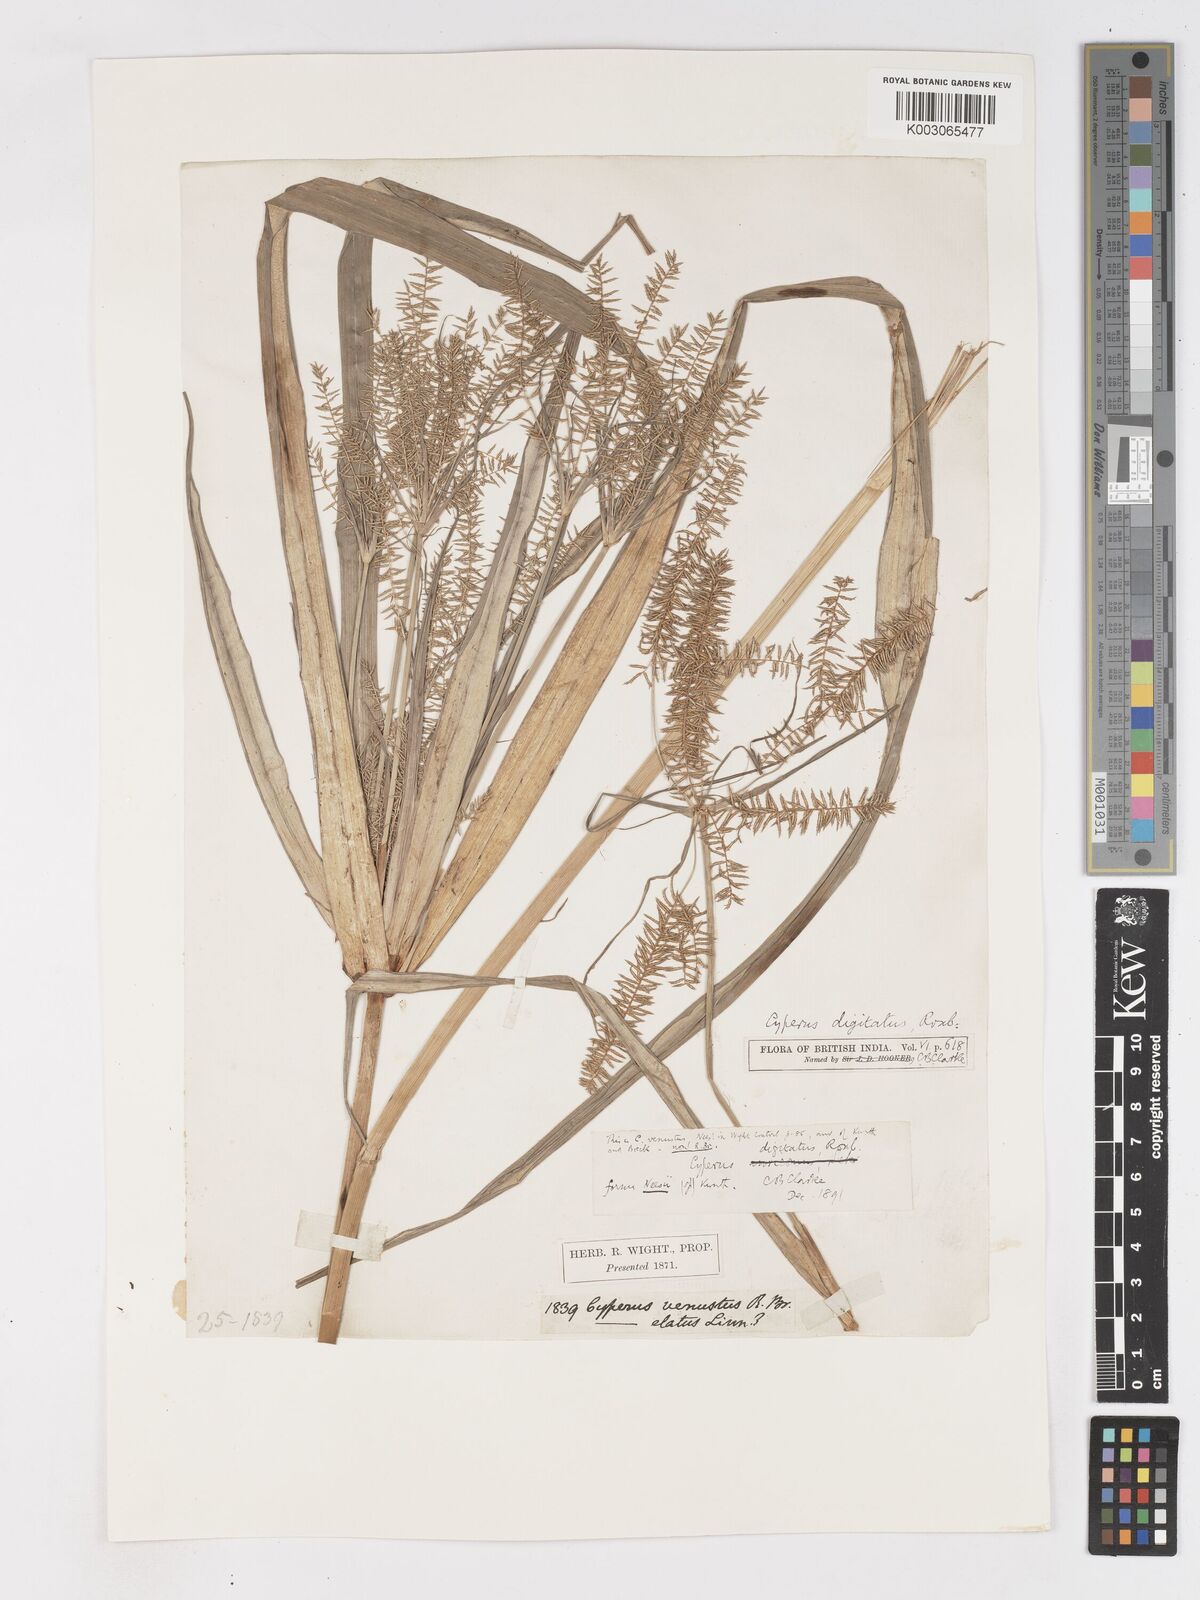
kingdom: Plantae
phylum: Tracheophyta
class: Liliopsida
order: Poales
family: Cyperaceae
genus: Cyperus
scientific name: Cyperus digitatus
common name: Finger flatsedge
